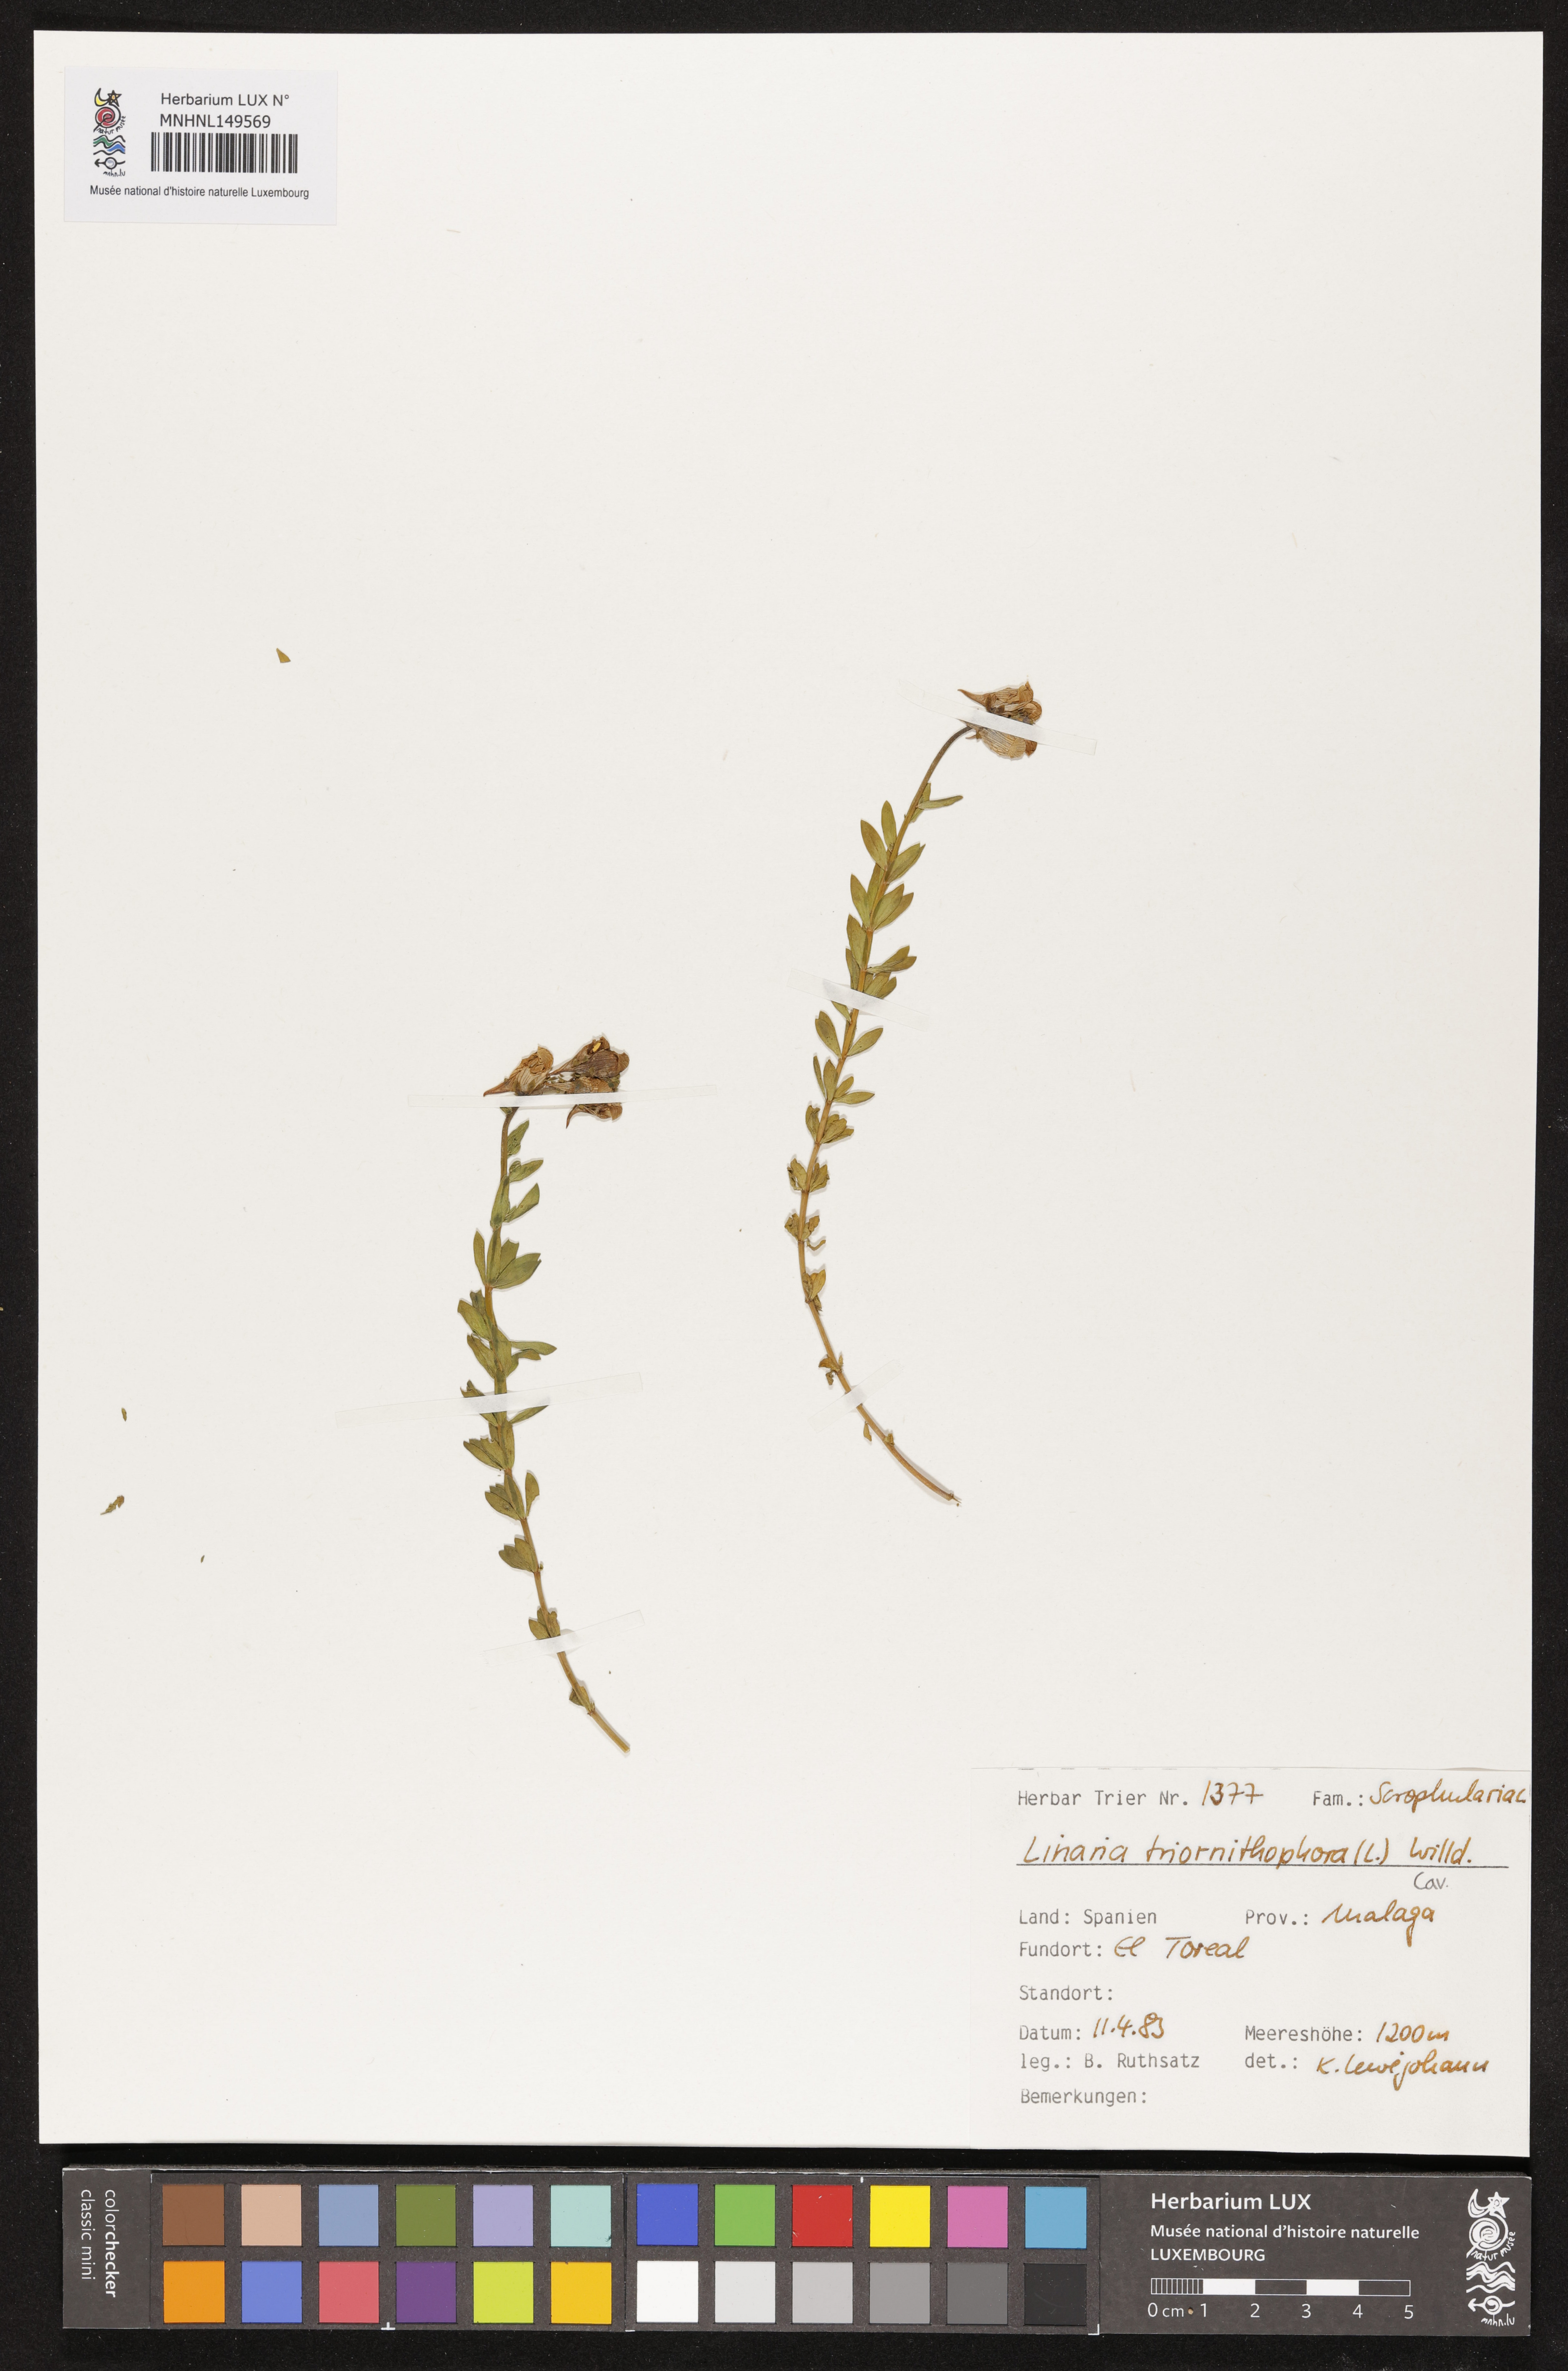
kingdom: Plantae
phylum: Tracheophyta
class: Magnoliopsida
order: Lamiales
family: Plantaginaceae
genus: Linaria
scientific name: Linaria triornithophora
